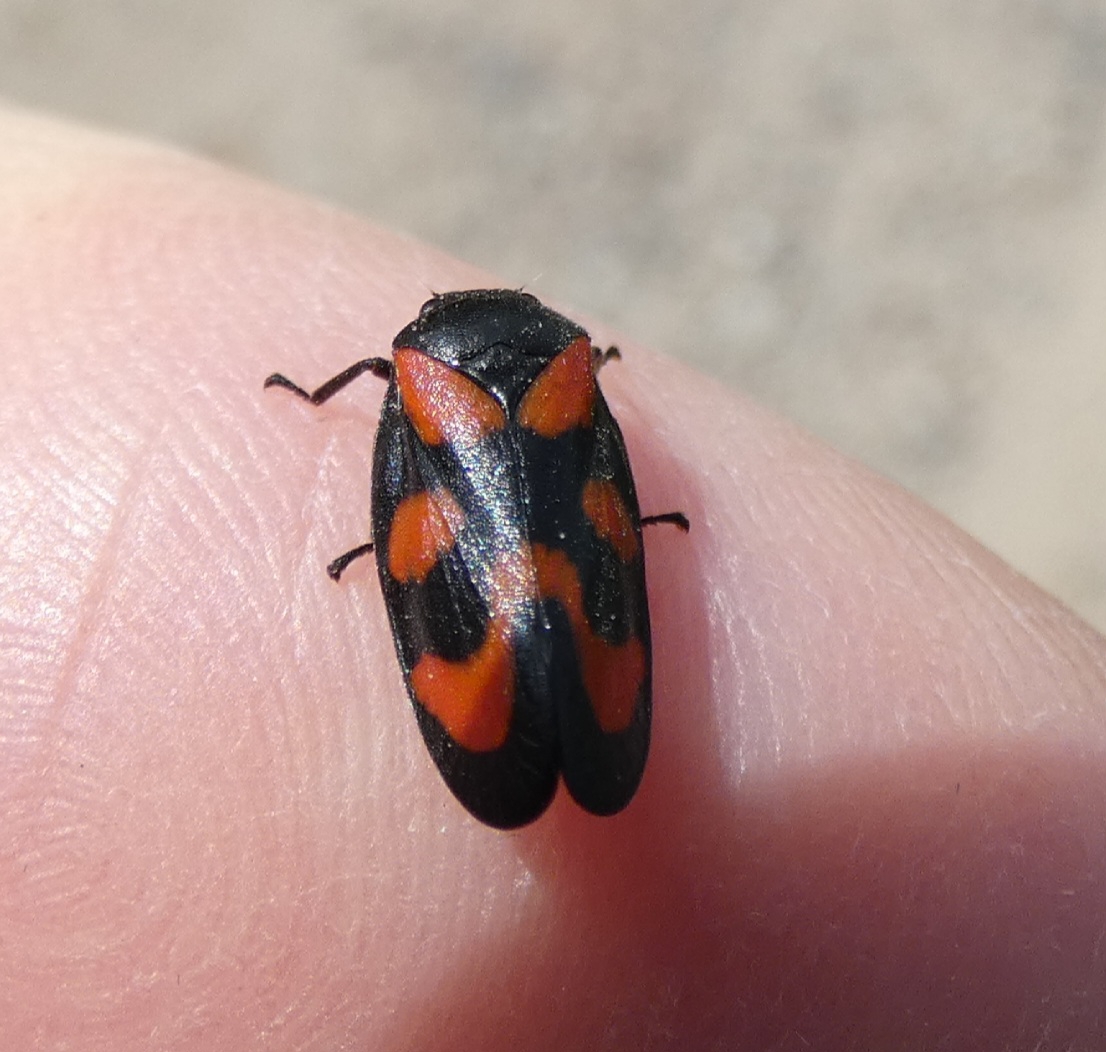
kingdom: Animalia
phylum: Arthropoda
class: Insecta
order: Hemiptera
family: Cercopidae
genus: Cercopis
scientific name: Cercopis vulnerata
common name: Blodcikade
